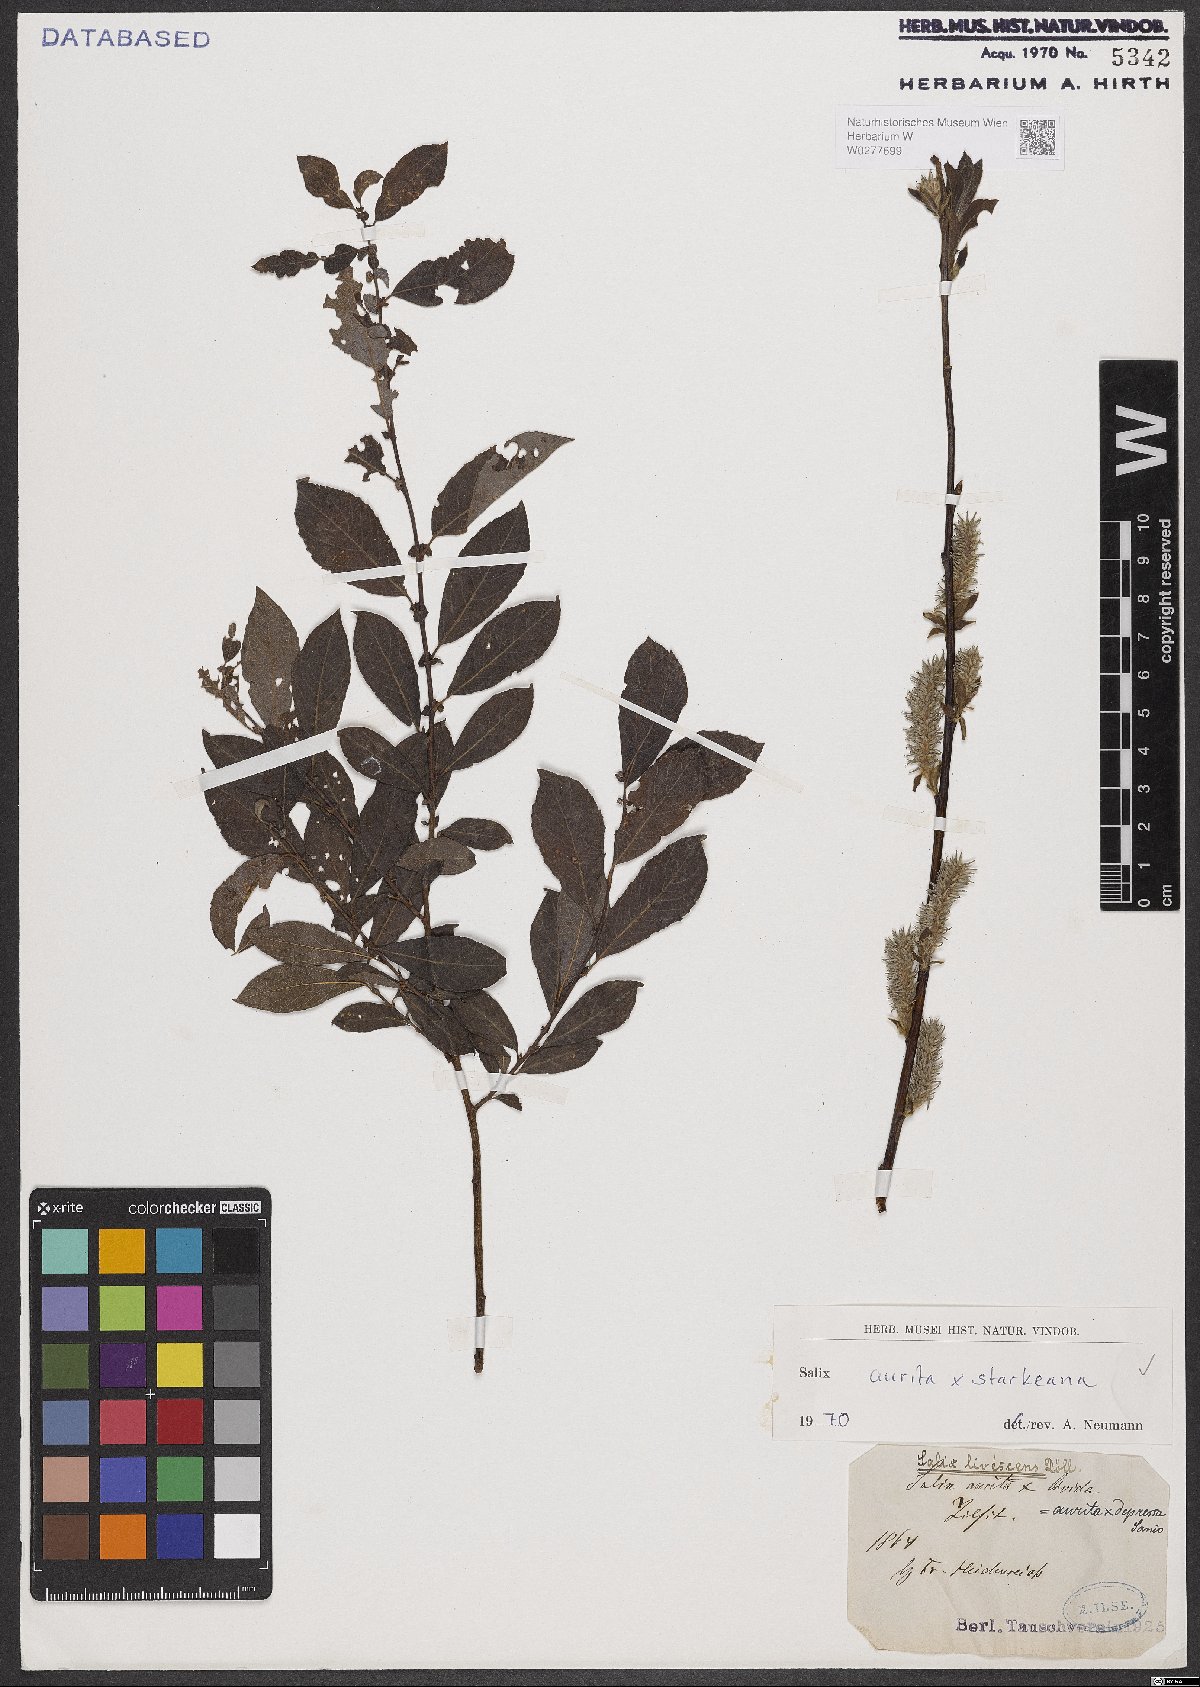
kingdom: Plantae
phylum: Tracheophyta
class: Magnoliopsida
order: Malpighiales
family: Salicaceae
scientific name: Salicaceae
